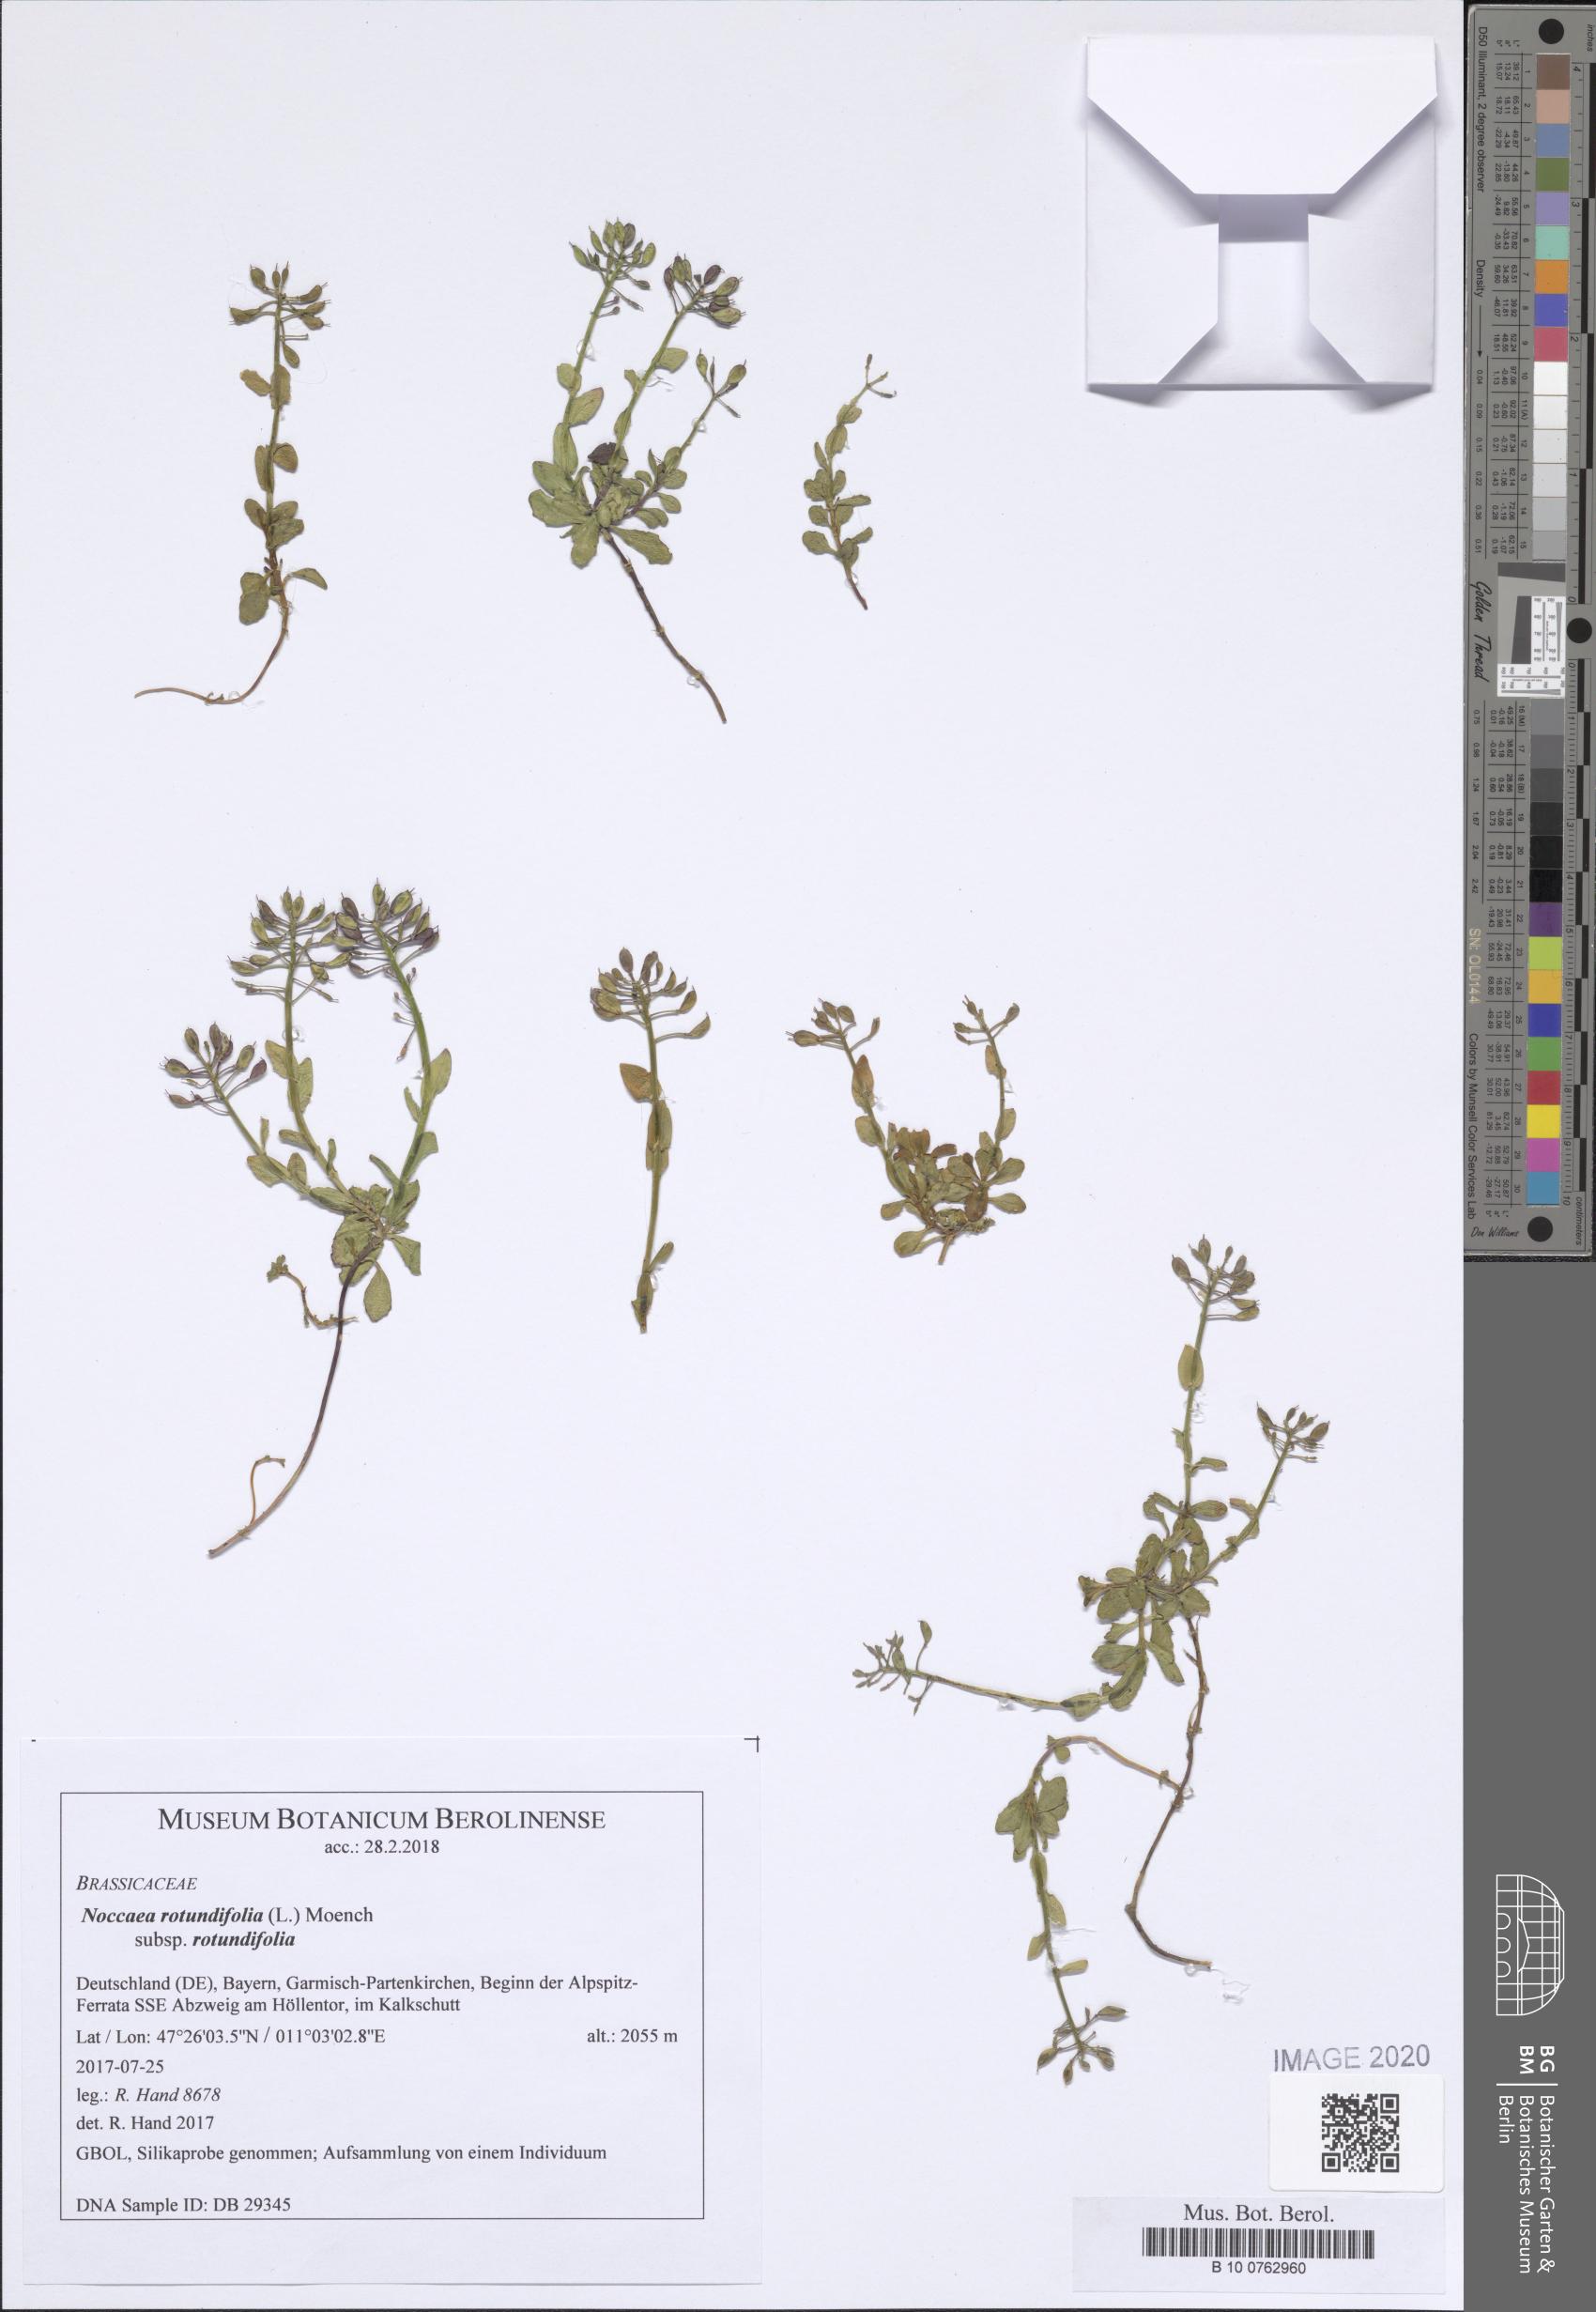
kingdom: Plantae
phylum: Tracheophyta
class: Magnoliopsida
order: Brassicales
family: Brassicaceae
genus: Noccaea
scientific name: Noccaea rotundifolia
